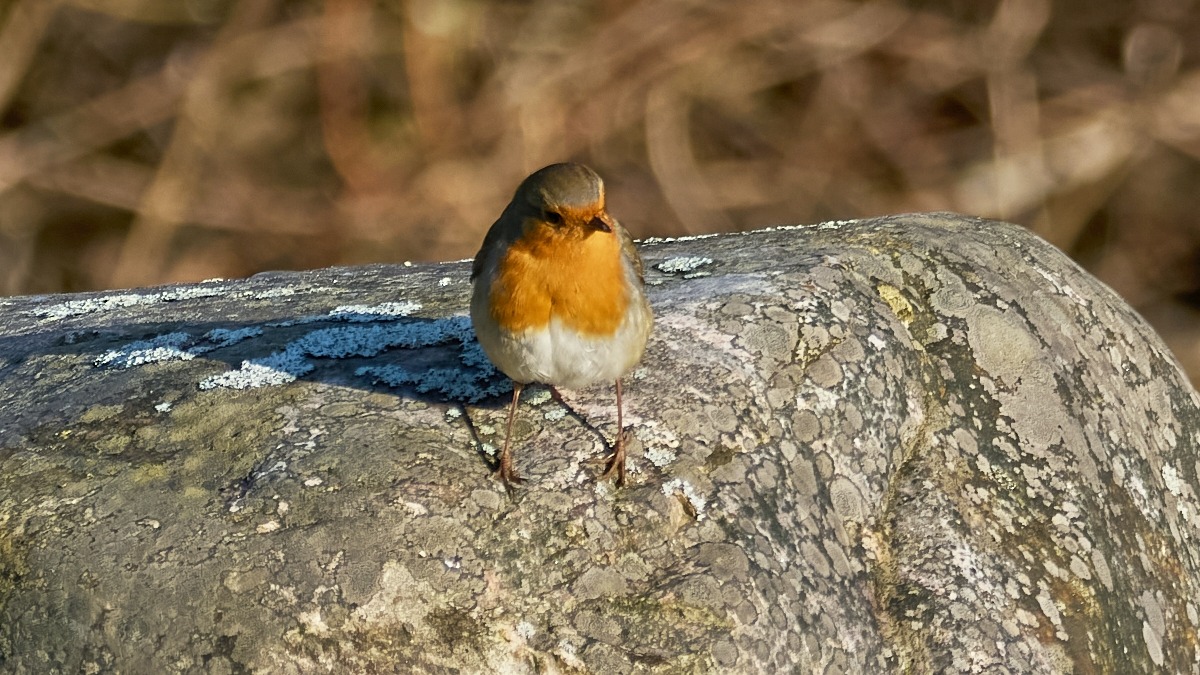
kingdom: Animalia
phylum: Chordata
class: Aves
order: Passeriformes
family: Muscicapidae
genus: Erithacus
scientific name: Erithacus rubecula
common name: Rødhals/rødkælk
